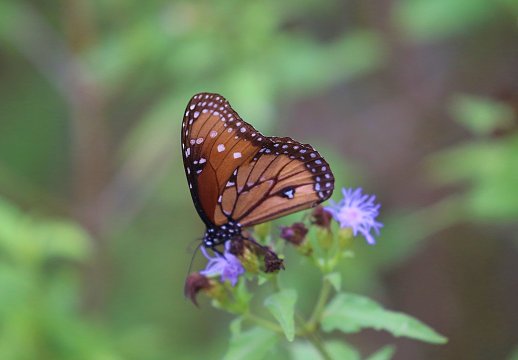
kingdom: Animalia
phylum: Arthropoda
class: Insecta
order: Lepidoptera
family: Nymphalidae
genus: Danaus
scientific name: Danaus gilippus
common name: Queen
